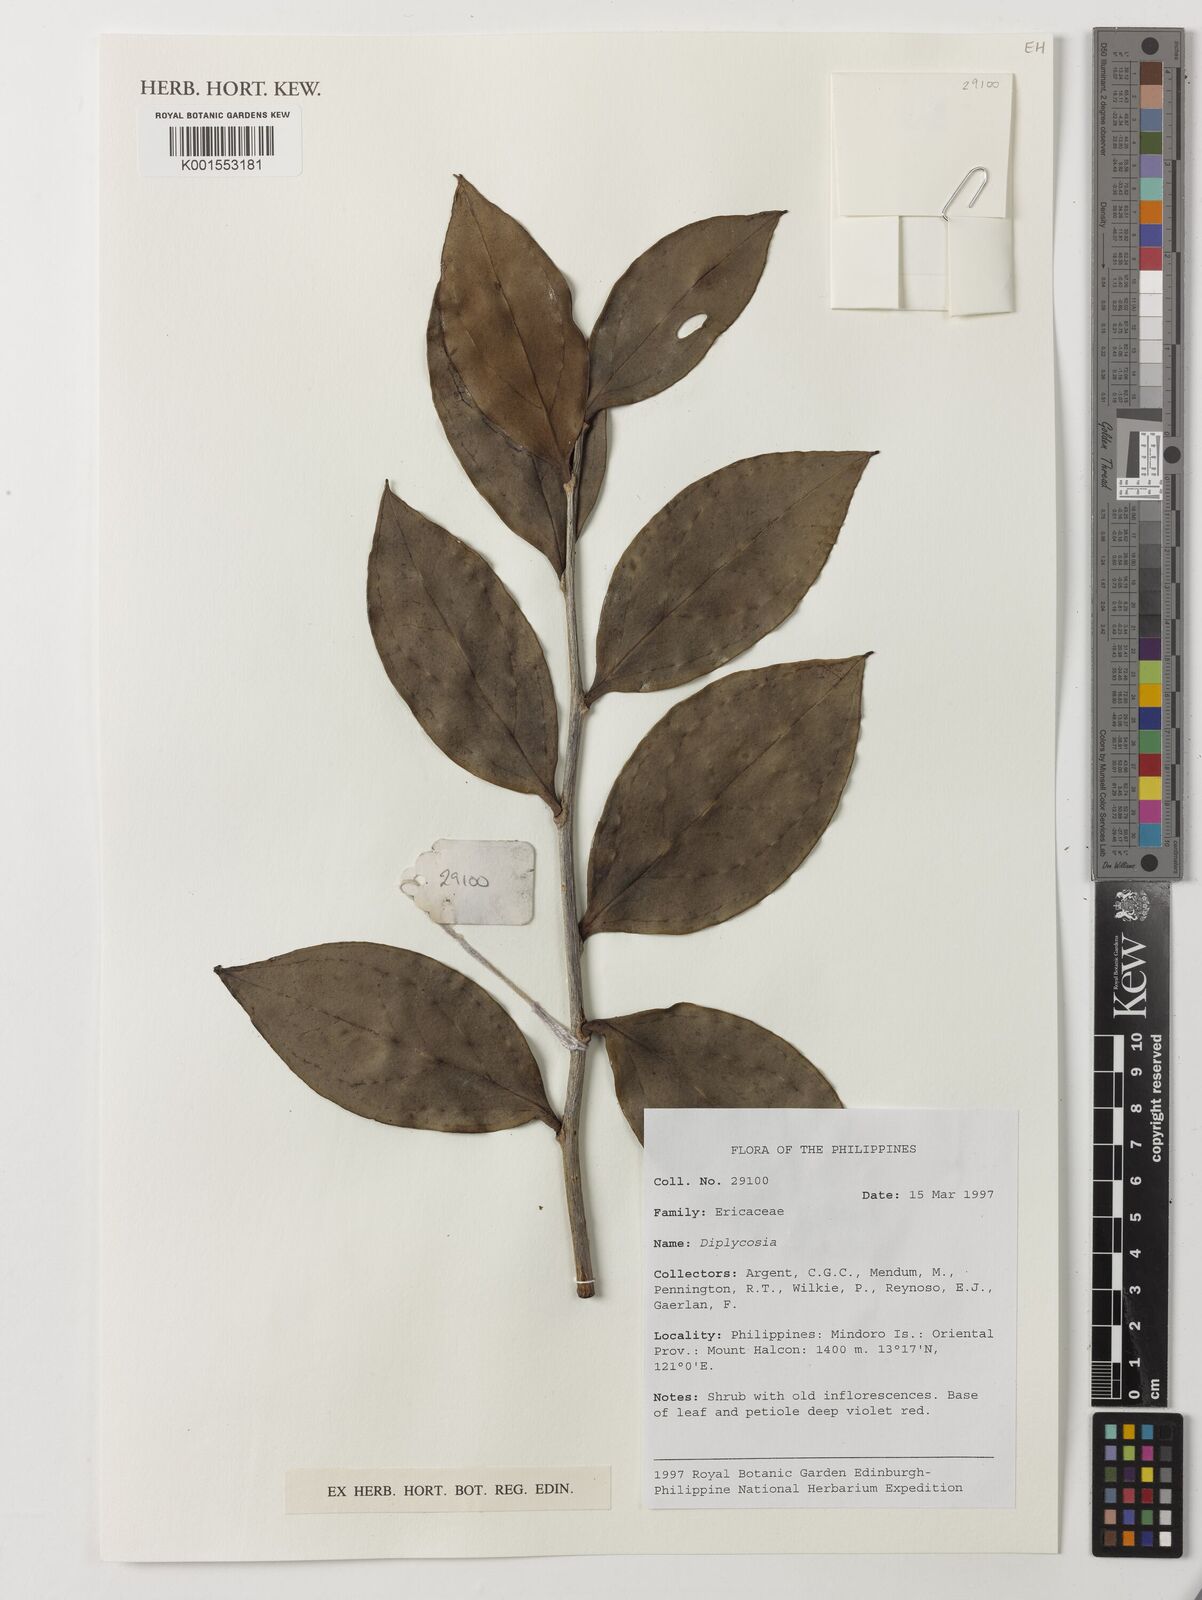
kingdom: Plantae
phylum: Tracheophyta
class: Magnoliopsida
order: Ericales
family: Ericaceae
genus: Gaultheria
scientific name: Gaultheria
